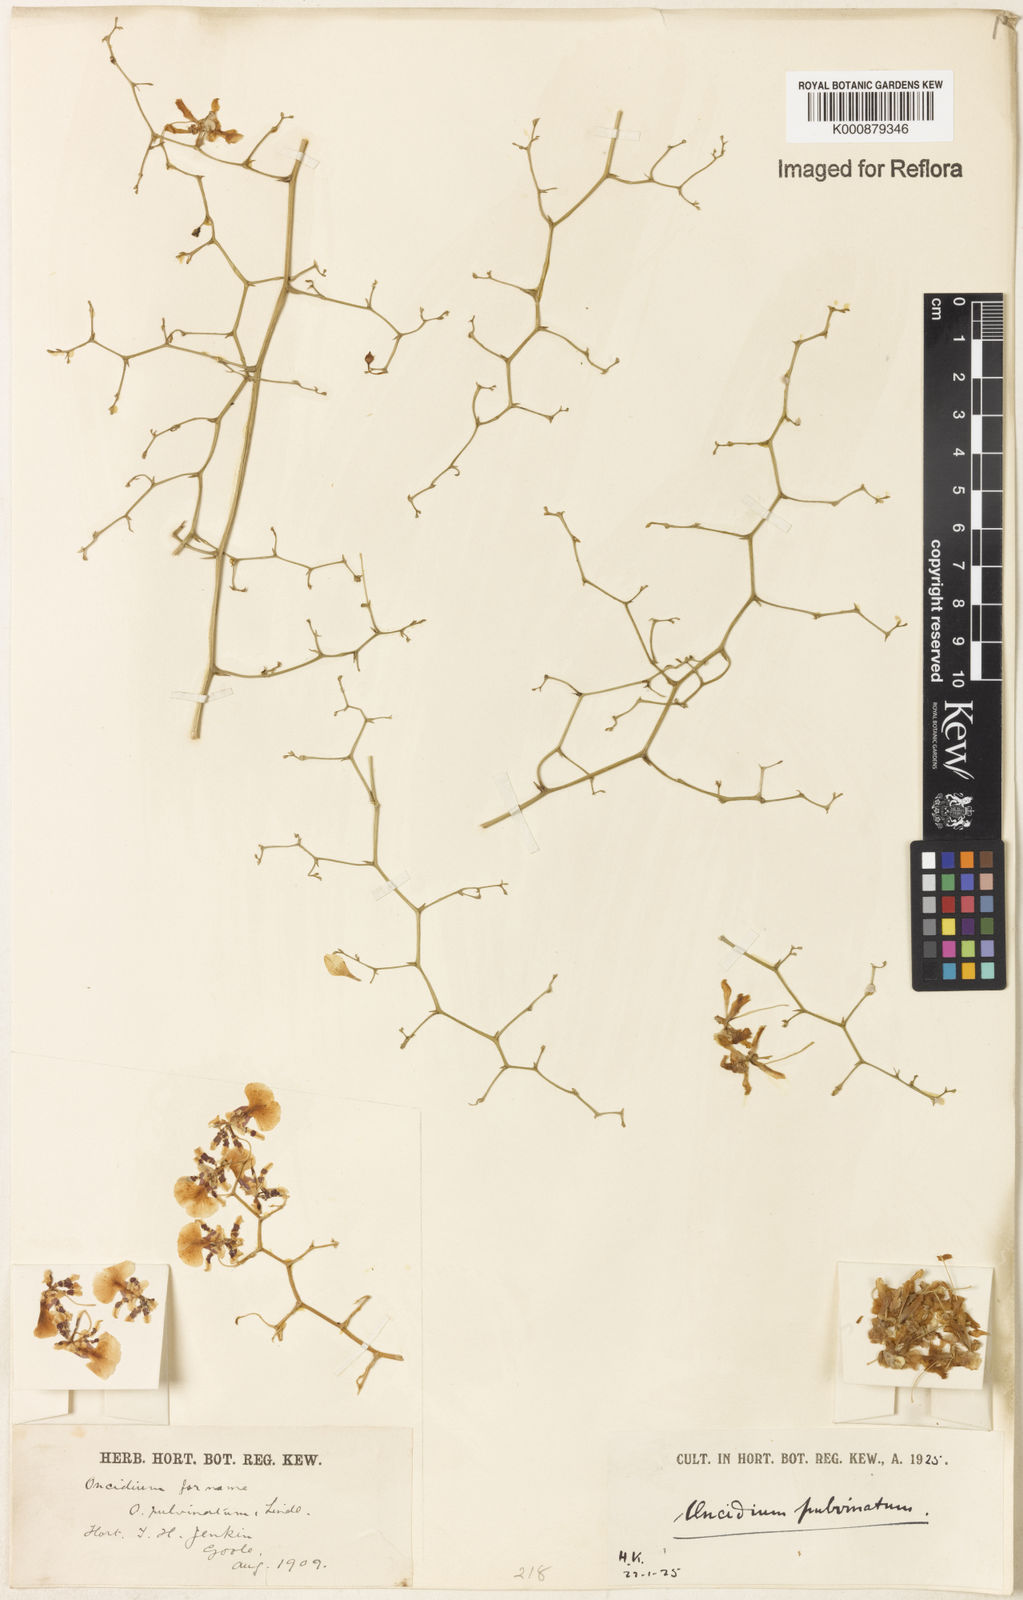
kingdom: Plantae
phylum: Tracheophyta
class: Liliopsida
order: Asparagales
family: Orchidaceae
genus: Grandiphyllum
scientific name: Grandiphyllum divaricatum
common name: Mule-ear orchid
